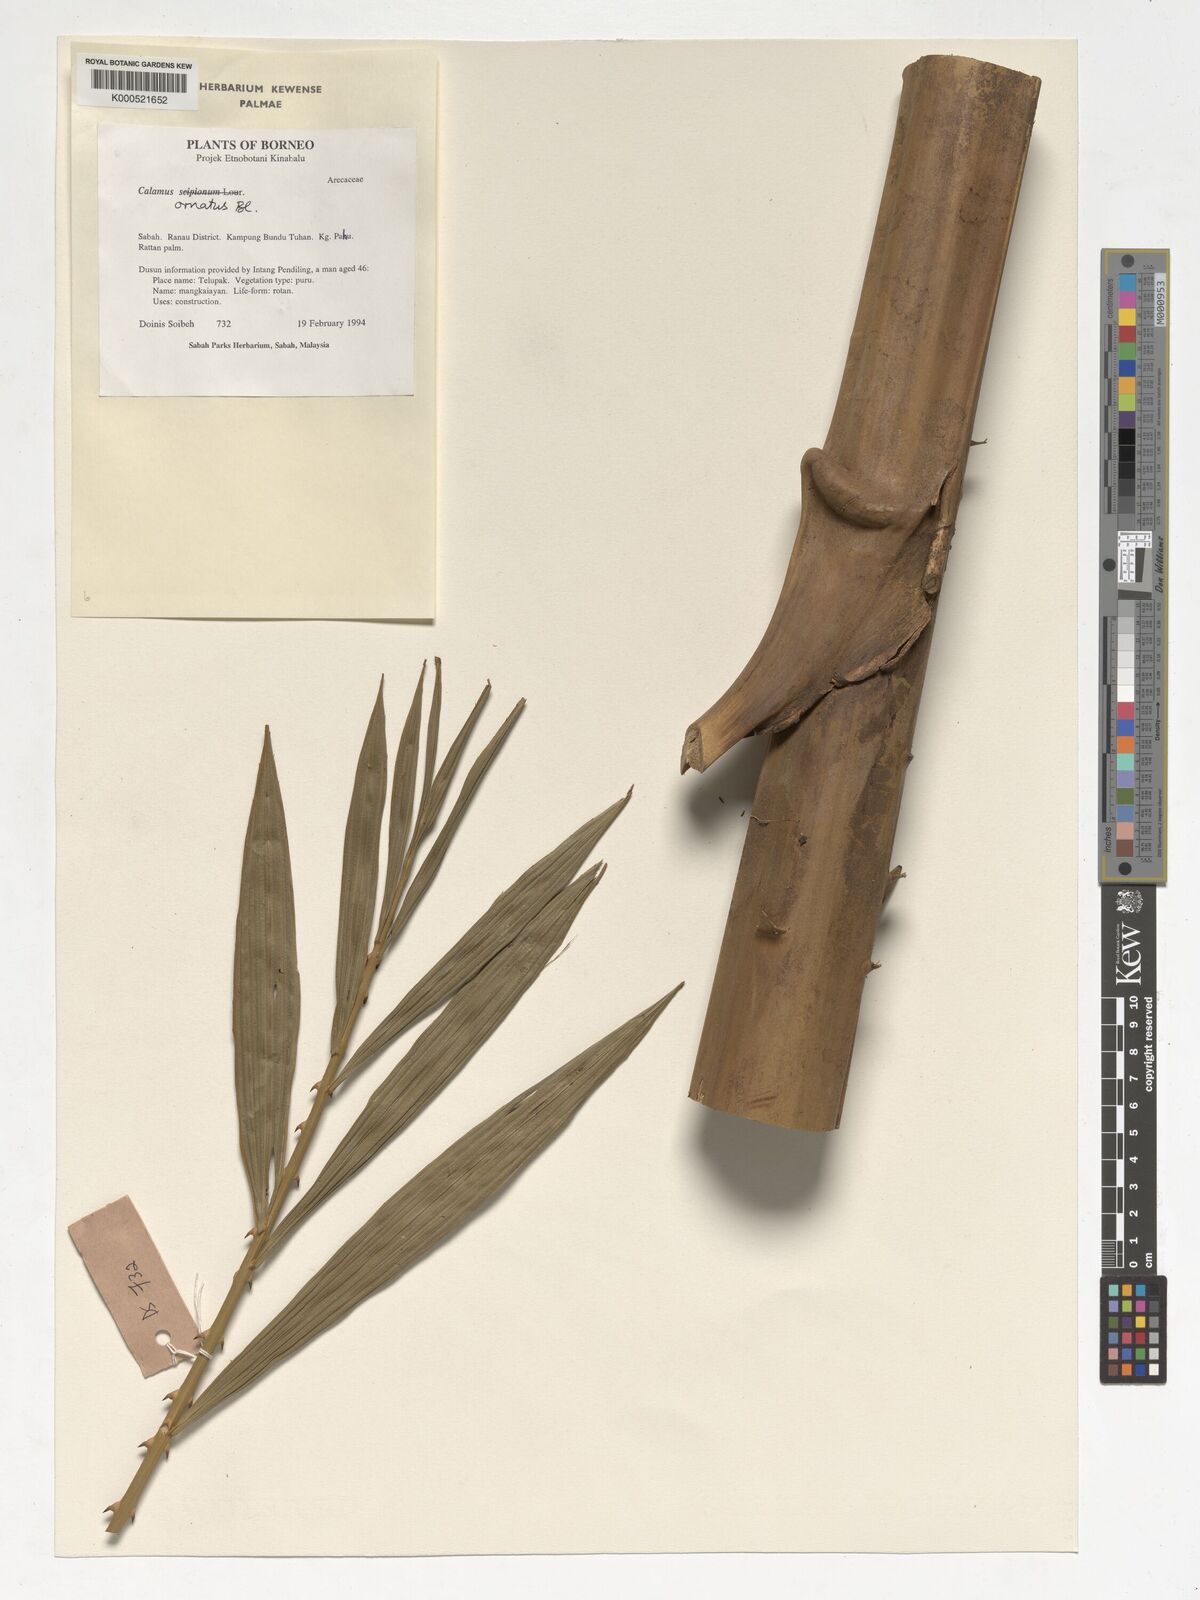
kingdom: Plantae
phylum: Tracheophyta
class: Liliopsida
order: Arecales
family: Arecaceae
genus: Calamus
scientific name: Calamus ornatus
